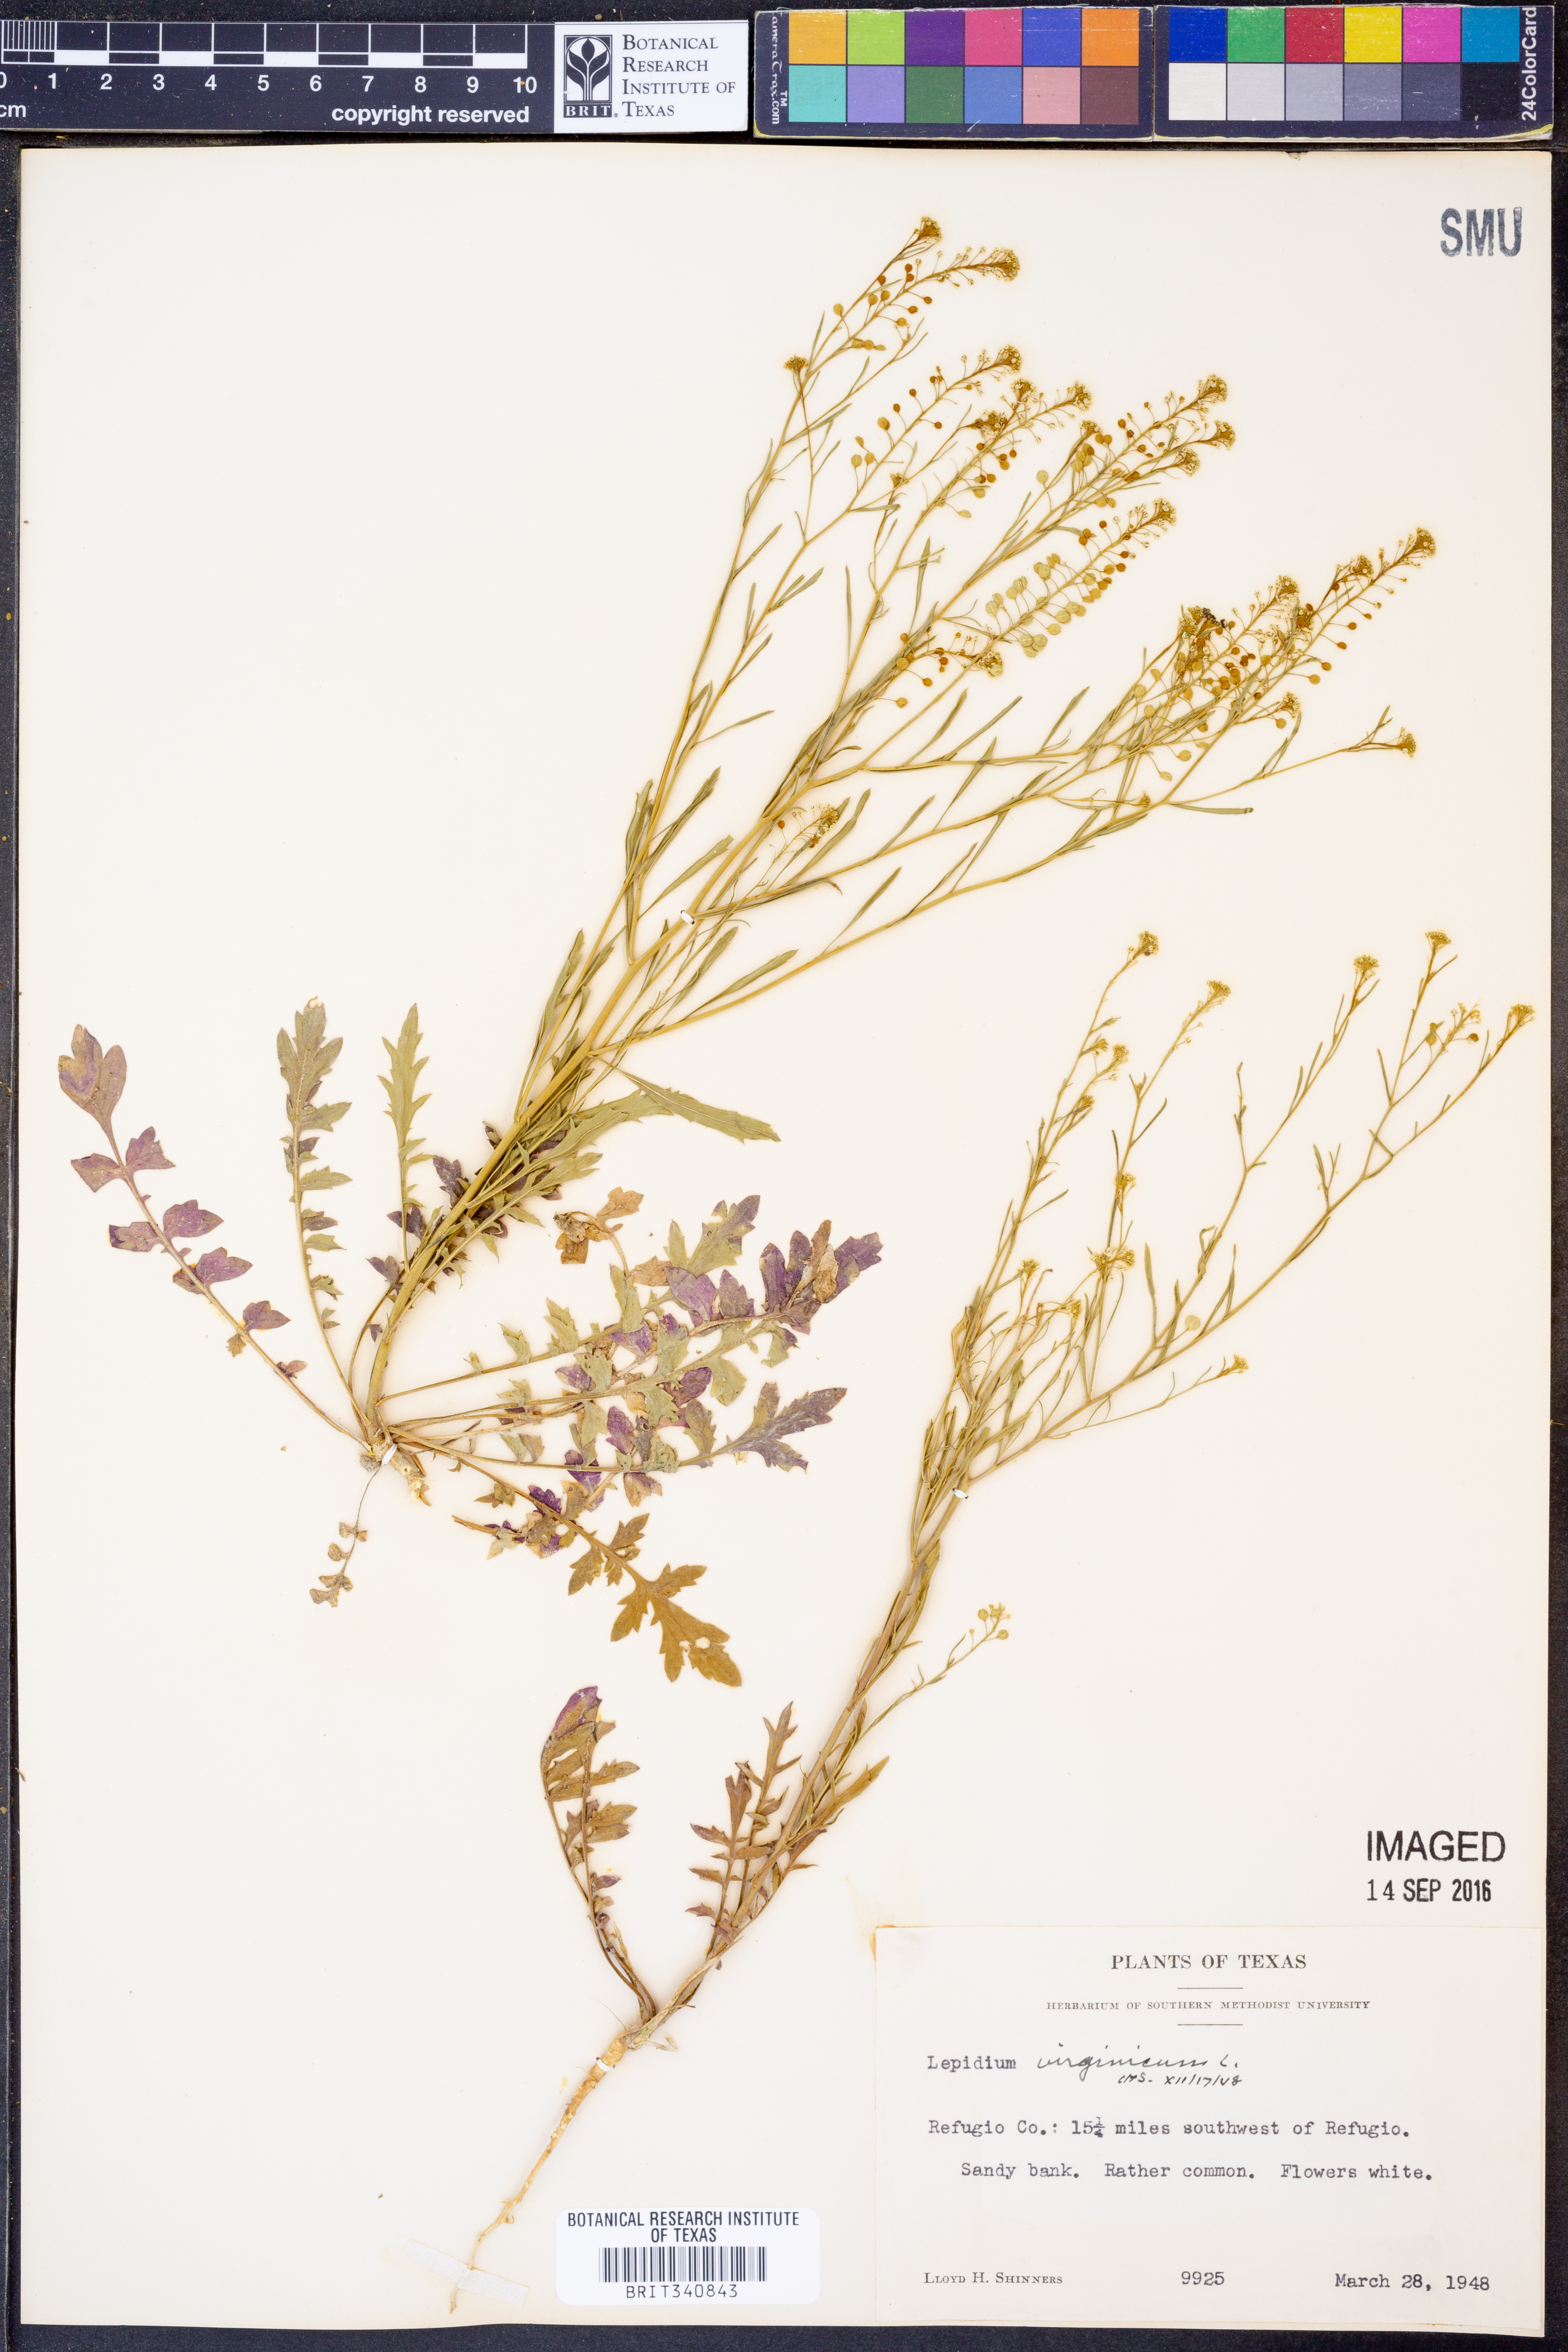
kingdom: Plantae
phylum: Tracheophyta
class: Magnoliopsida
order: Brassicales
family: Brassicaceae
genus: Lepidium
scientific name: Lepidium virginicum
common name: Least pepperwort
